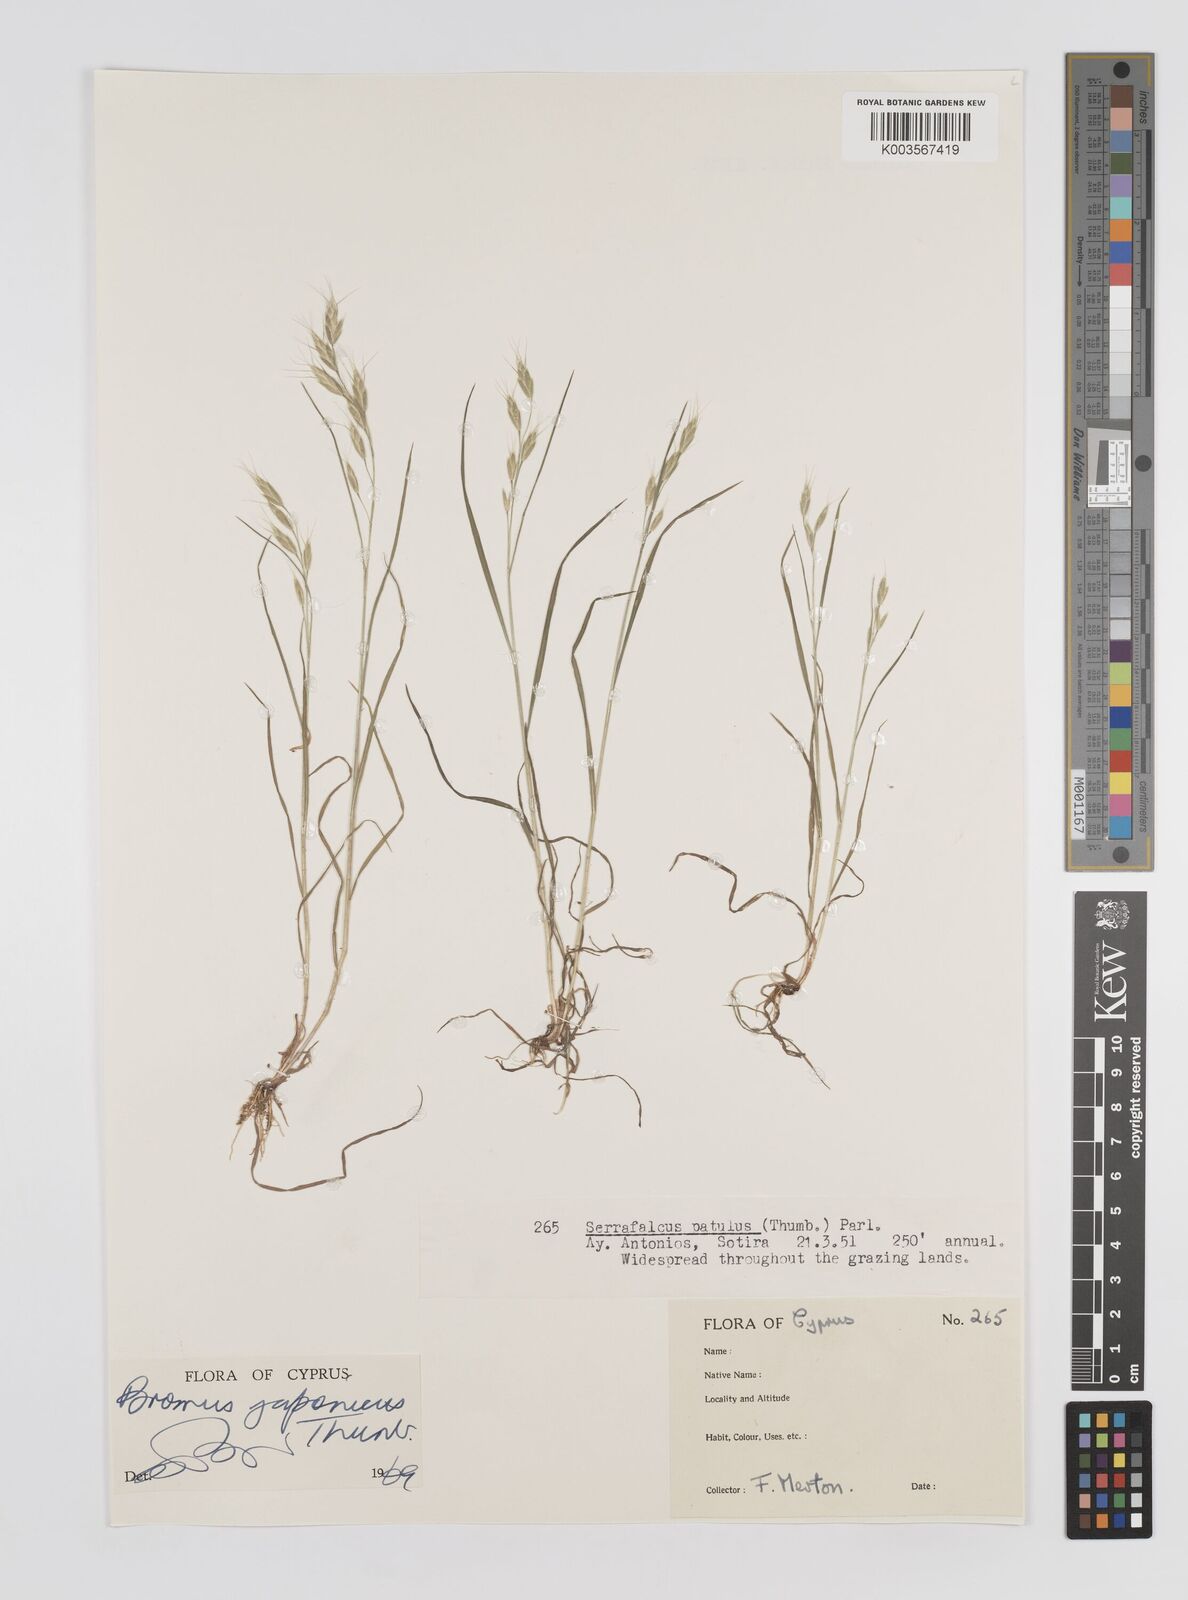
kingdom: Plantae
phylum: Tracheophyta
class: Liliopsida
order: Poales
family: Poaceae
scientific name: Poaceae
